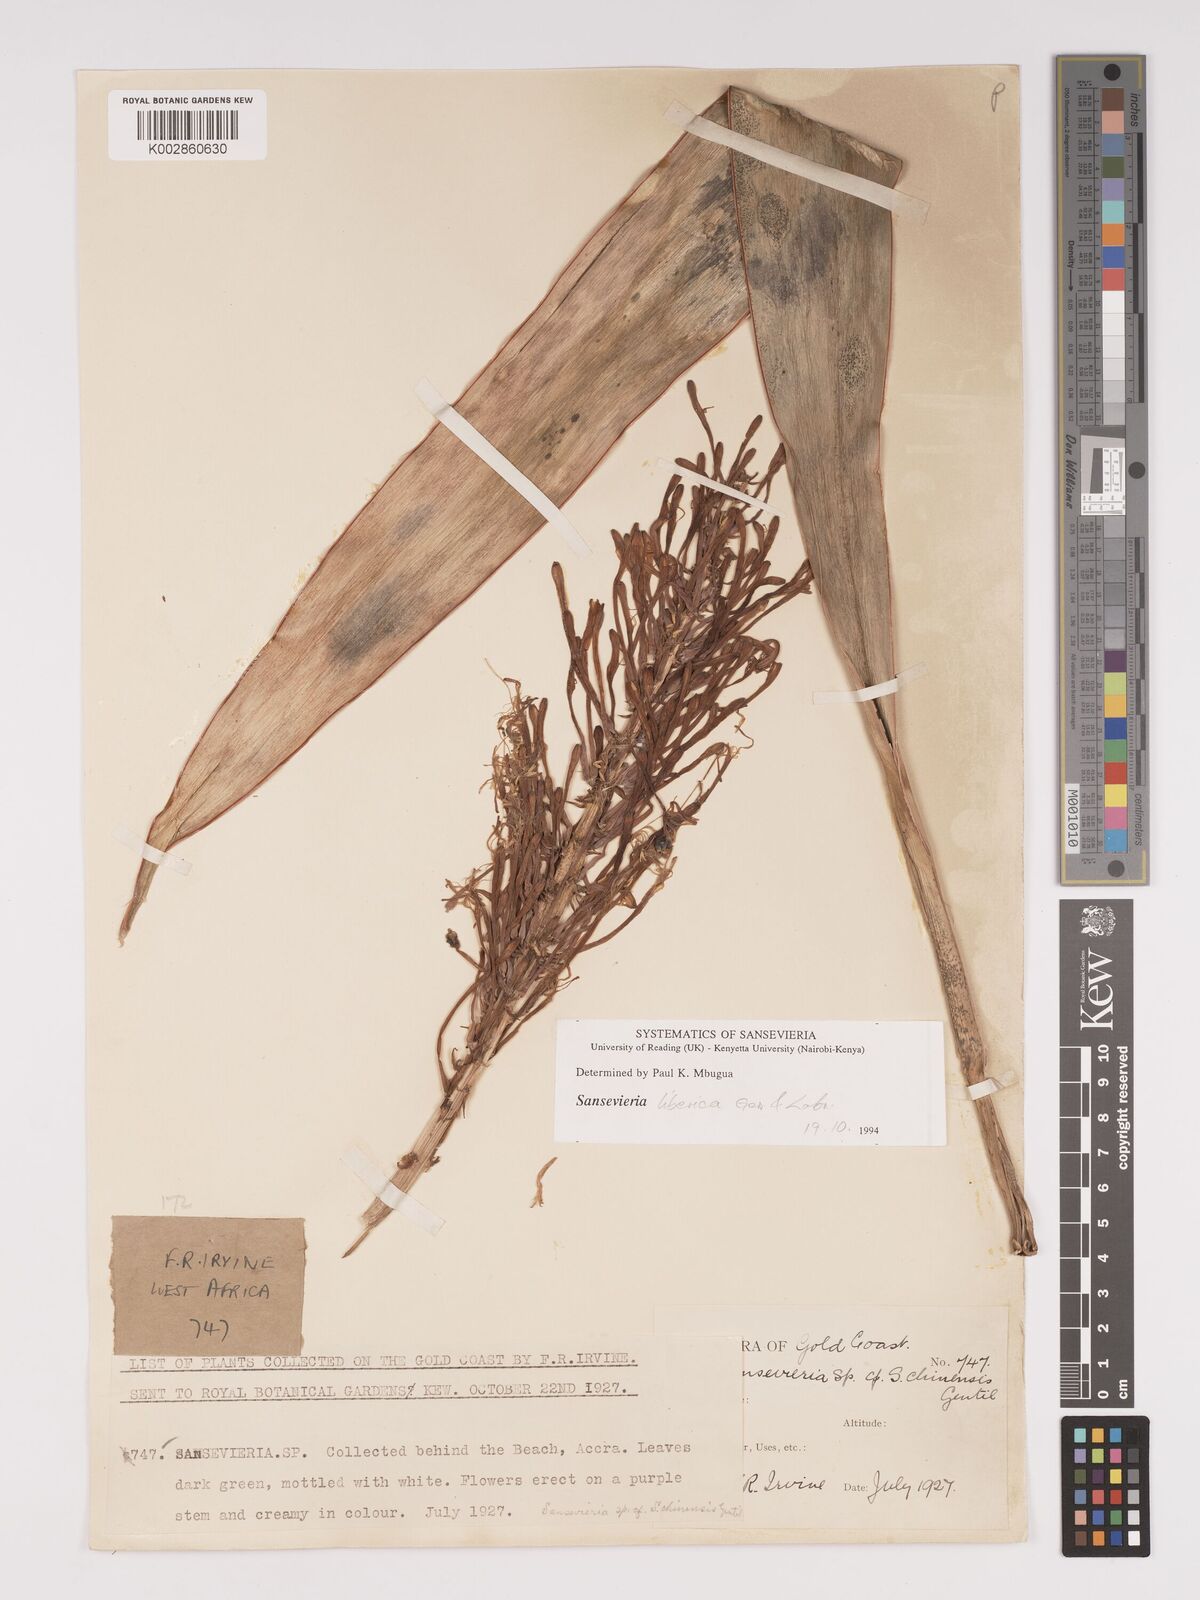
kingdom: Plantae
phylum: Tracheophyta
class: Liliopsida
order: Asparagales
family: Asparagaceae
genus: Dracaena
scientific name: Dracaena liberica
